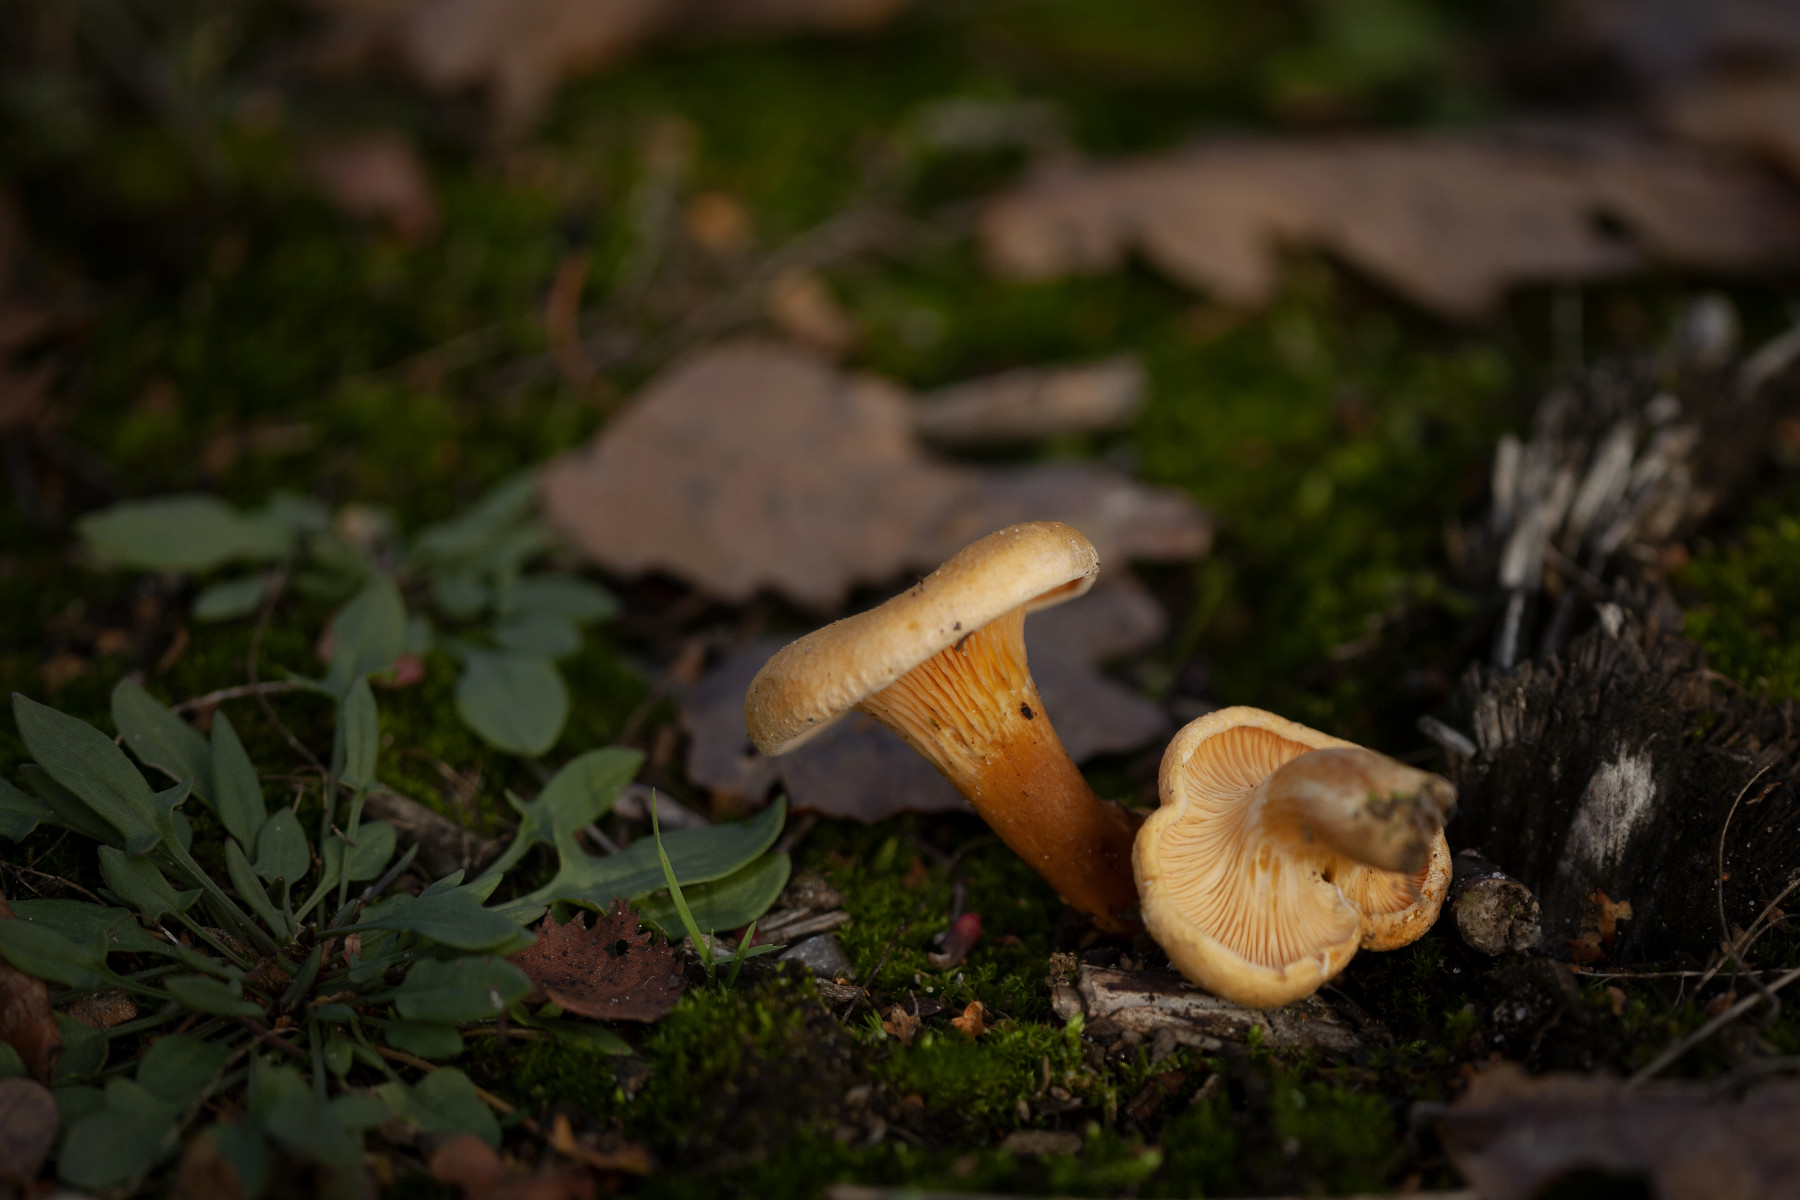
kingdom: Fungi
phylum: Basidiomycota
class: Agaricomycetes
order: Boletales
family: Hygrophoropsidaceae
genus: Hygrophoropsis
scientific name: Hygrophoropsis aurantiaca
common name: almindelig orangekantarel
